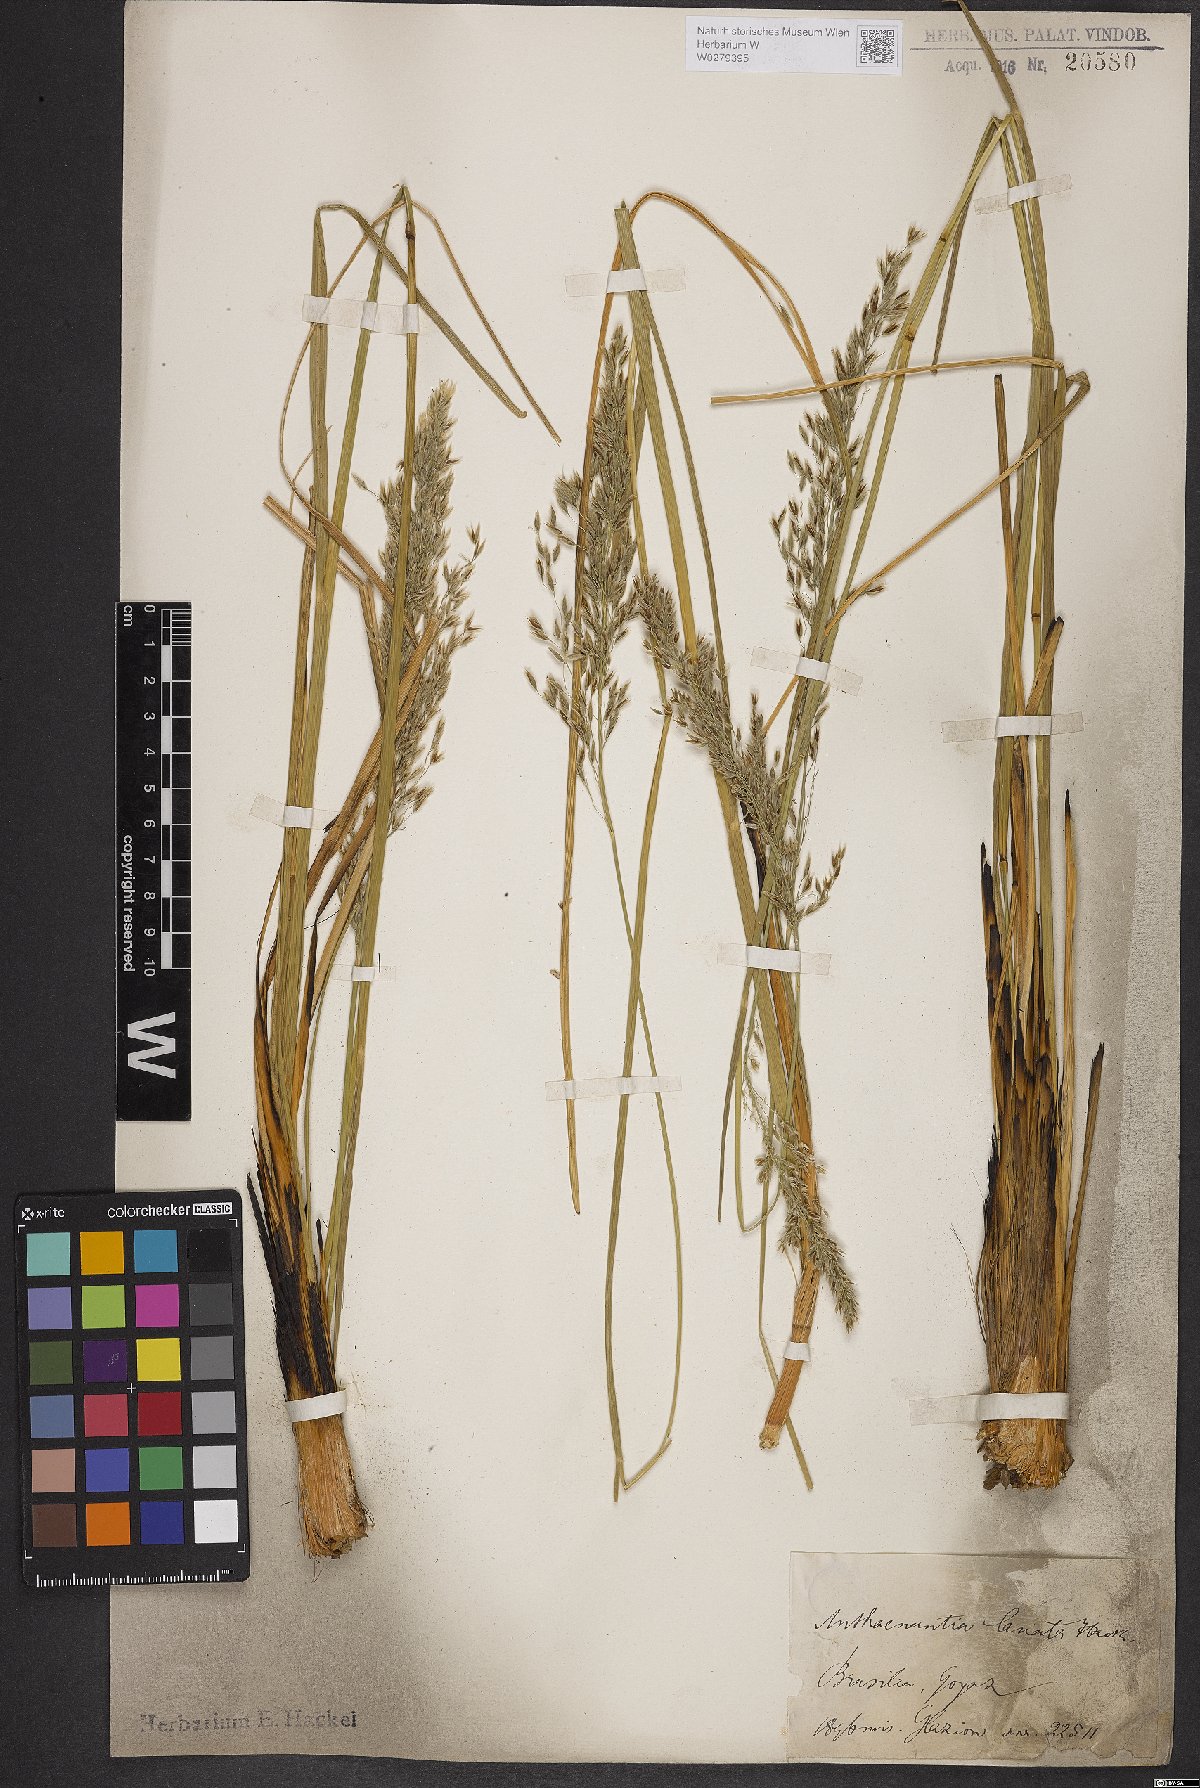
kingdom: Plantae
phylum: Tracheophyta
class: Liliopsida
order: Poales
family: Poaceae
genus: Anthaenantia
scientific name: Anthaenantia lanata
